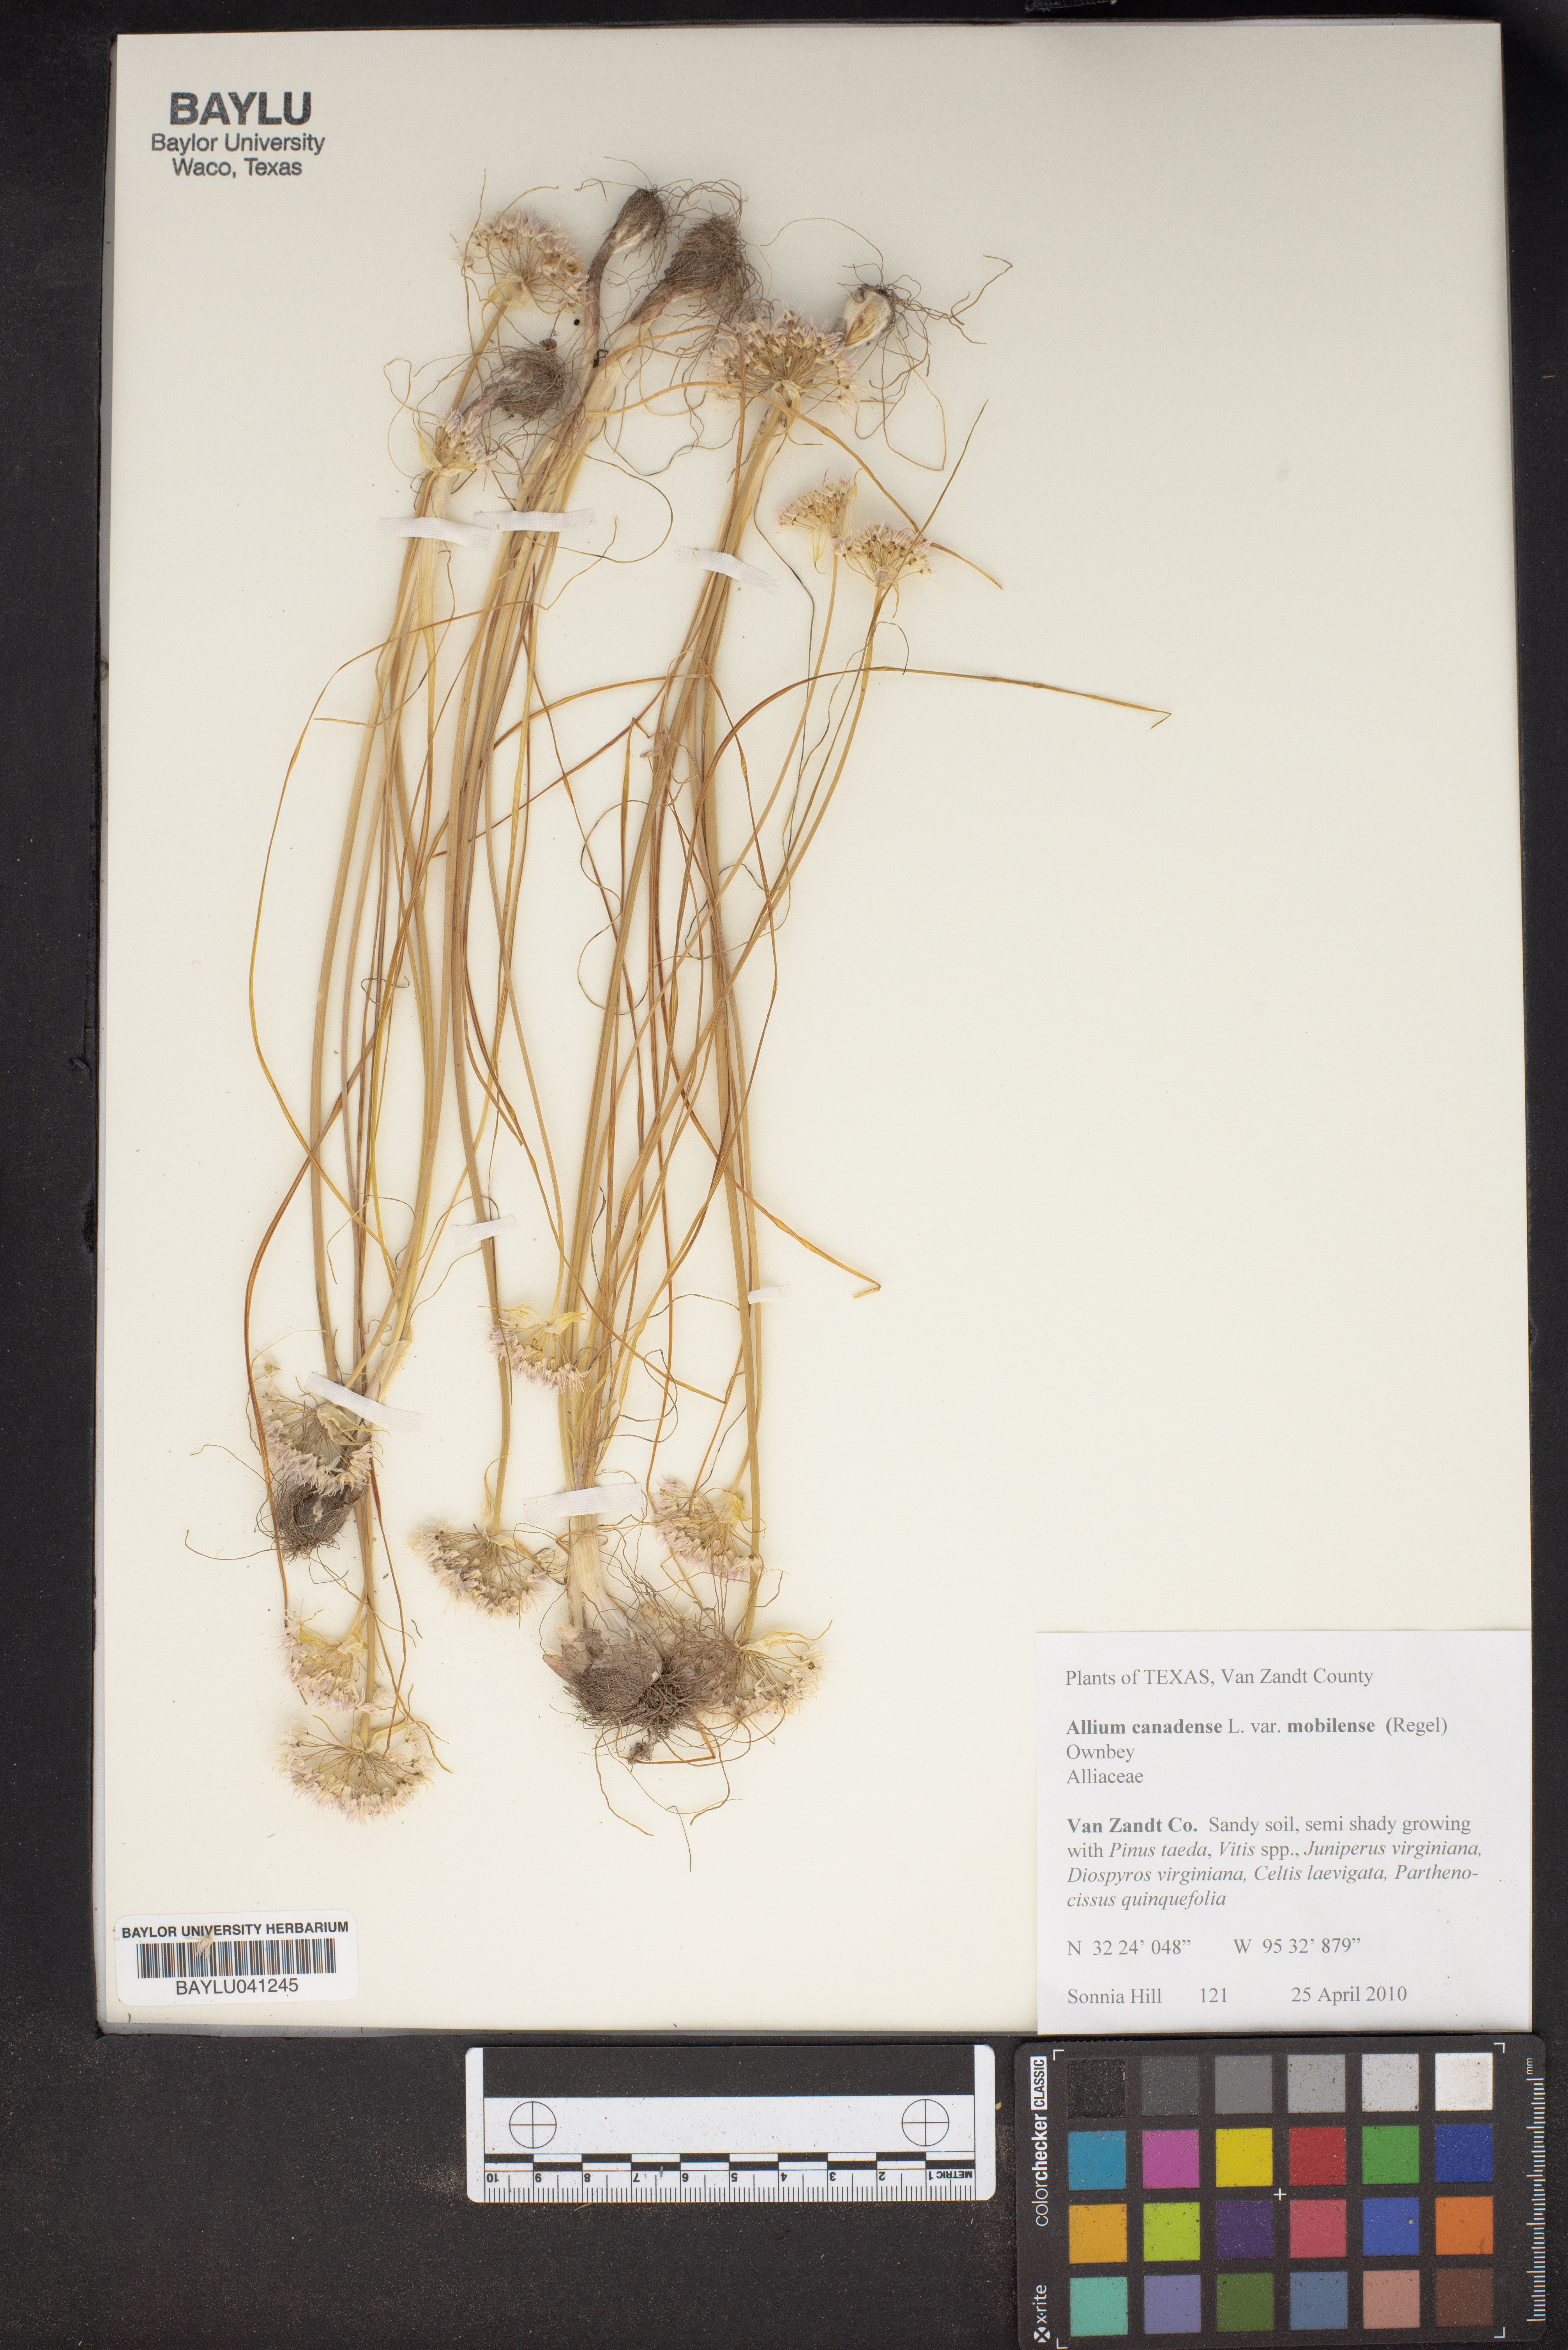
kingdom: Plantae
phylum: Tracheophyta
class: Liliopsida
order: Asparagales
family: Amaryllidaceae
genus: Allium
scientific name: Allium canadense
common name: Meadow garlic
